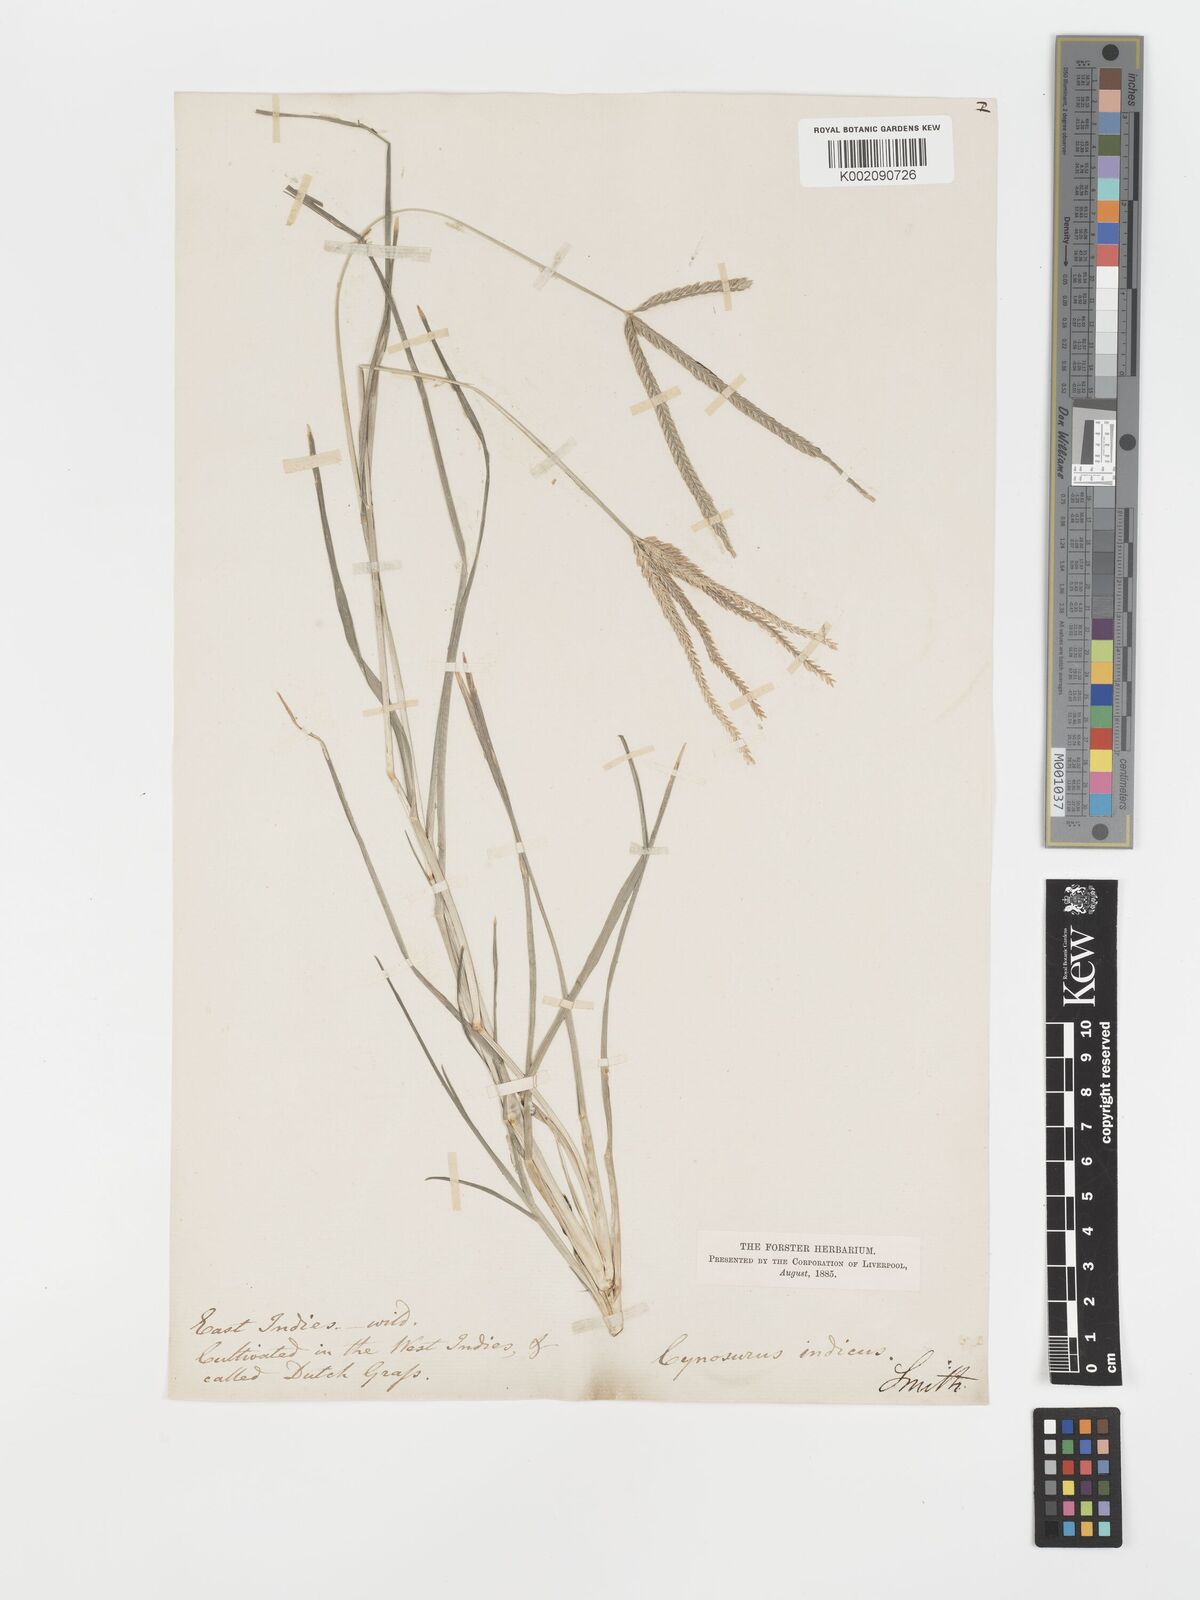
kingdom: Plantae
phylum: Tracheophyta
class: Liliopsida
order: Poales
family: Poaceae
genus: Eleusine
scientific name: Eleusine indica
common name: Yard-grass
